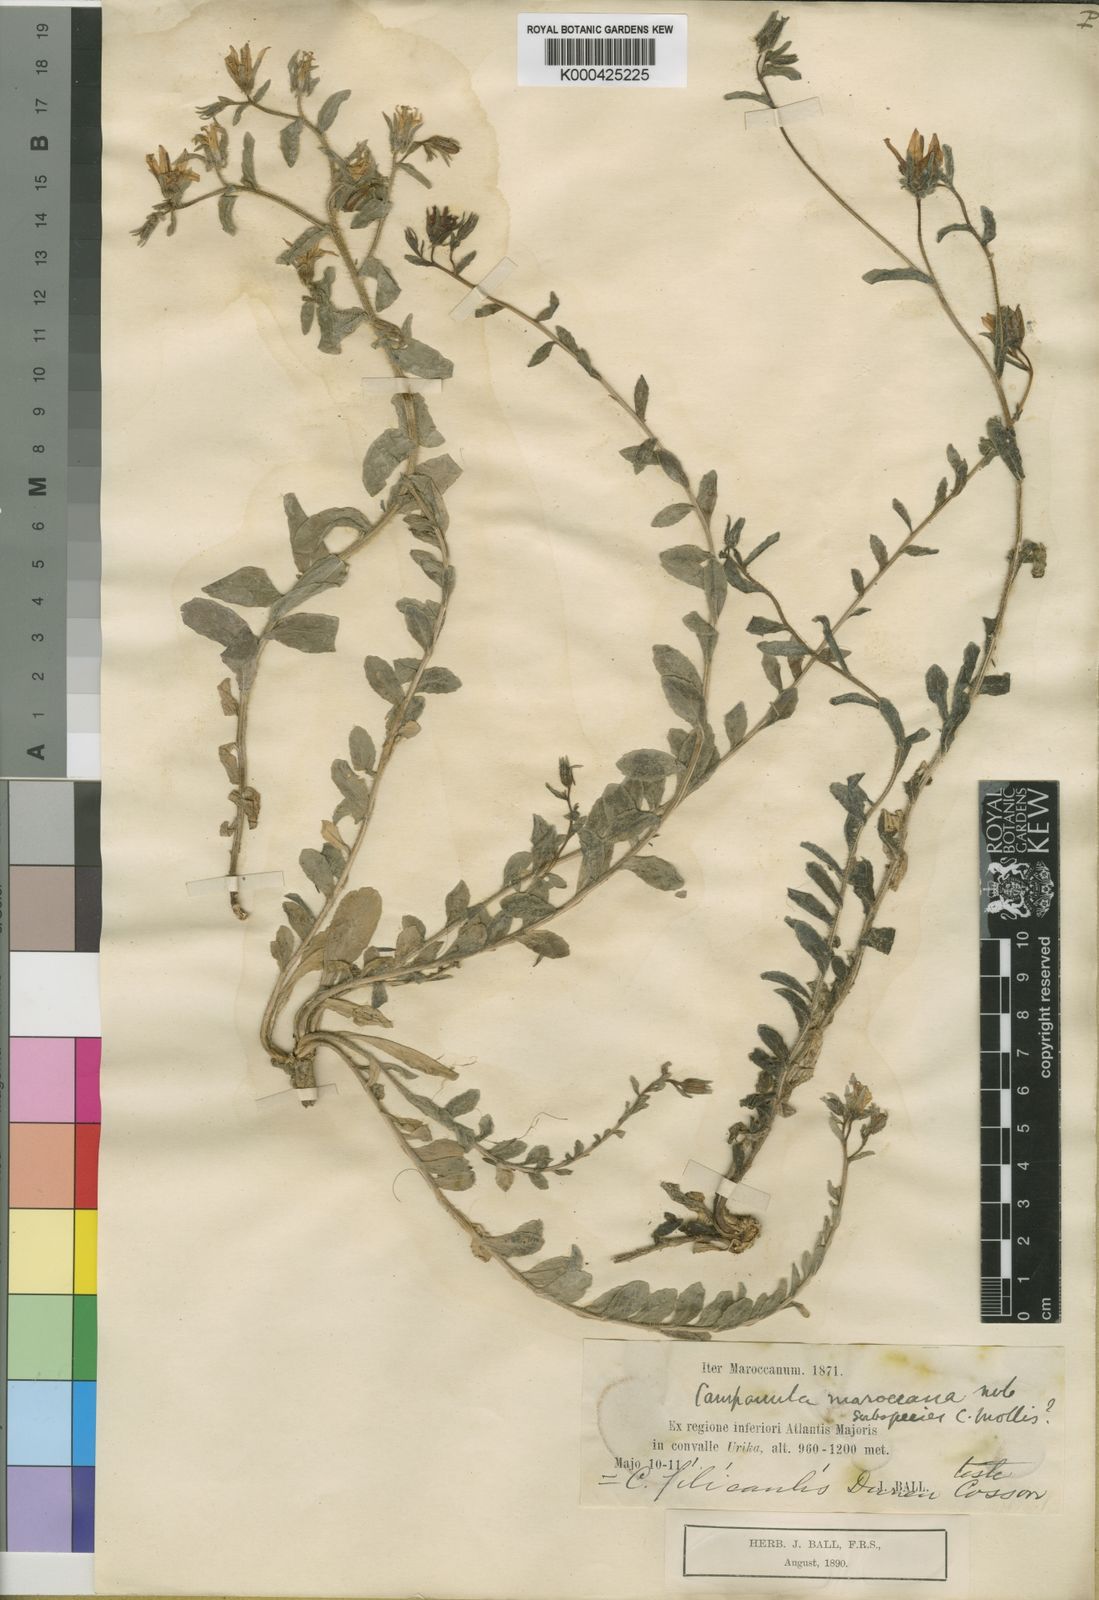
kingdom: Plantae
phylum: Tracheophyta
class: Magnoliopsida
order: Asterales
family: Campanulaceae
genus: Campanula
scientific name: Campanula filicaulis
